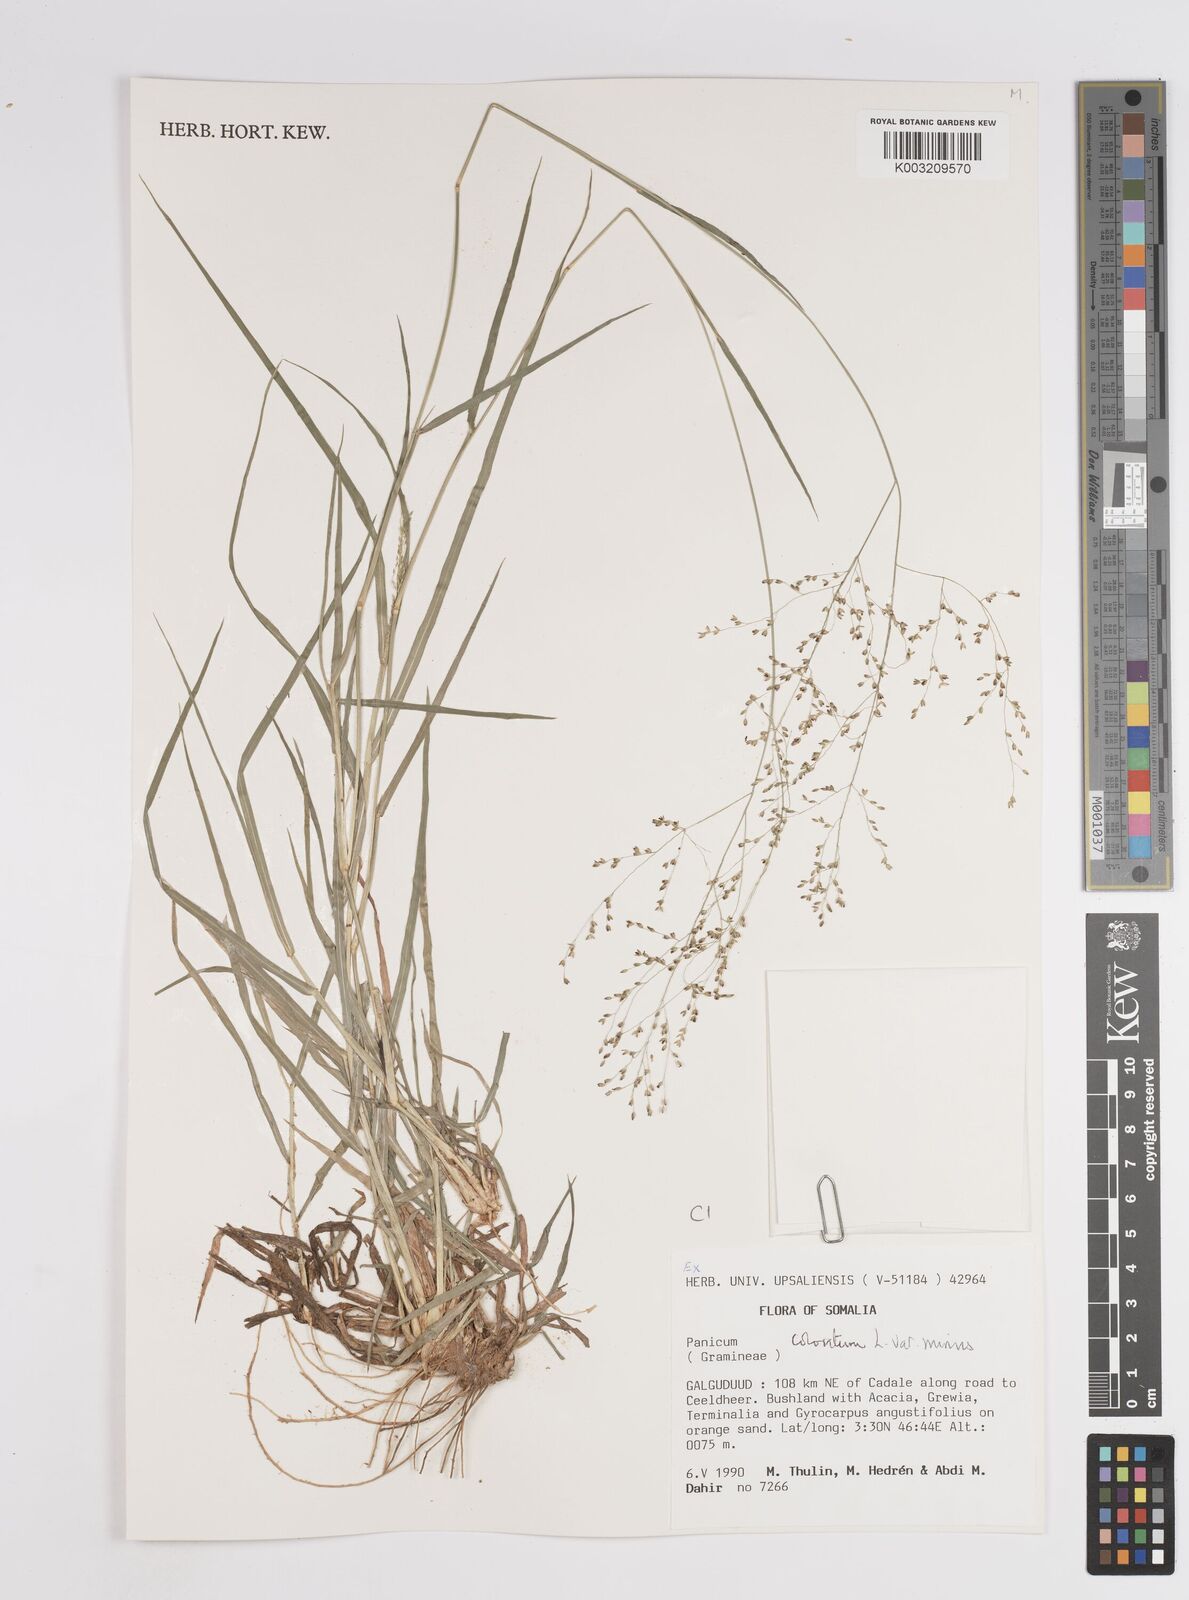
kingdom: Plantae
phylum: Tracheophyta
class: Liliopsida
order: Poales
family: Poaceae
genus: Panicum
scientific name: Panicum coloratum
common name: Kleingrass
